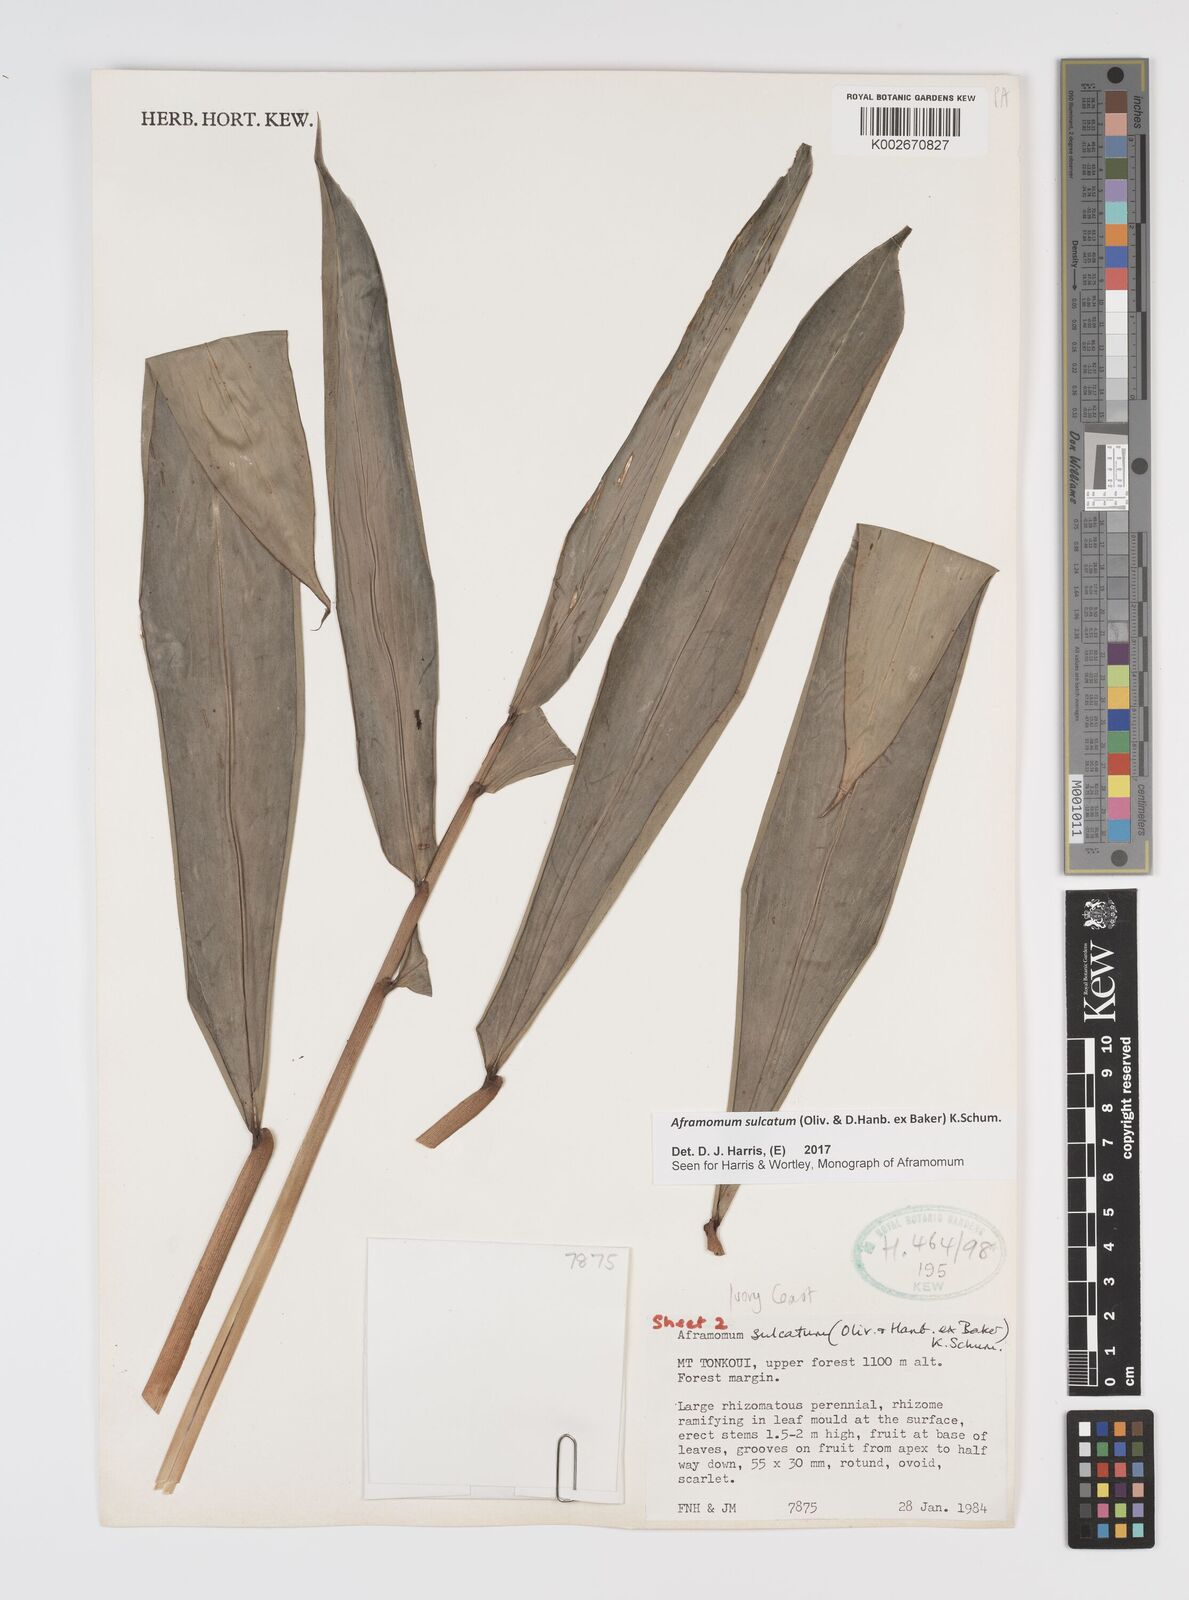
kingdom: Plantae
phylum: Tracheophyta
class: Liliopsida
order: Zingiberales
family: Zingiberaceae
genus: Aframomum
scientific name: Aframomum sulcatum
